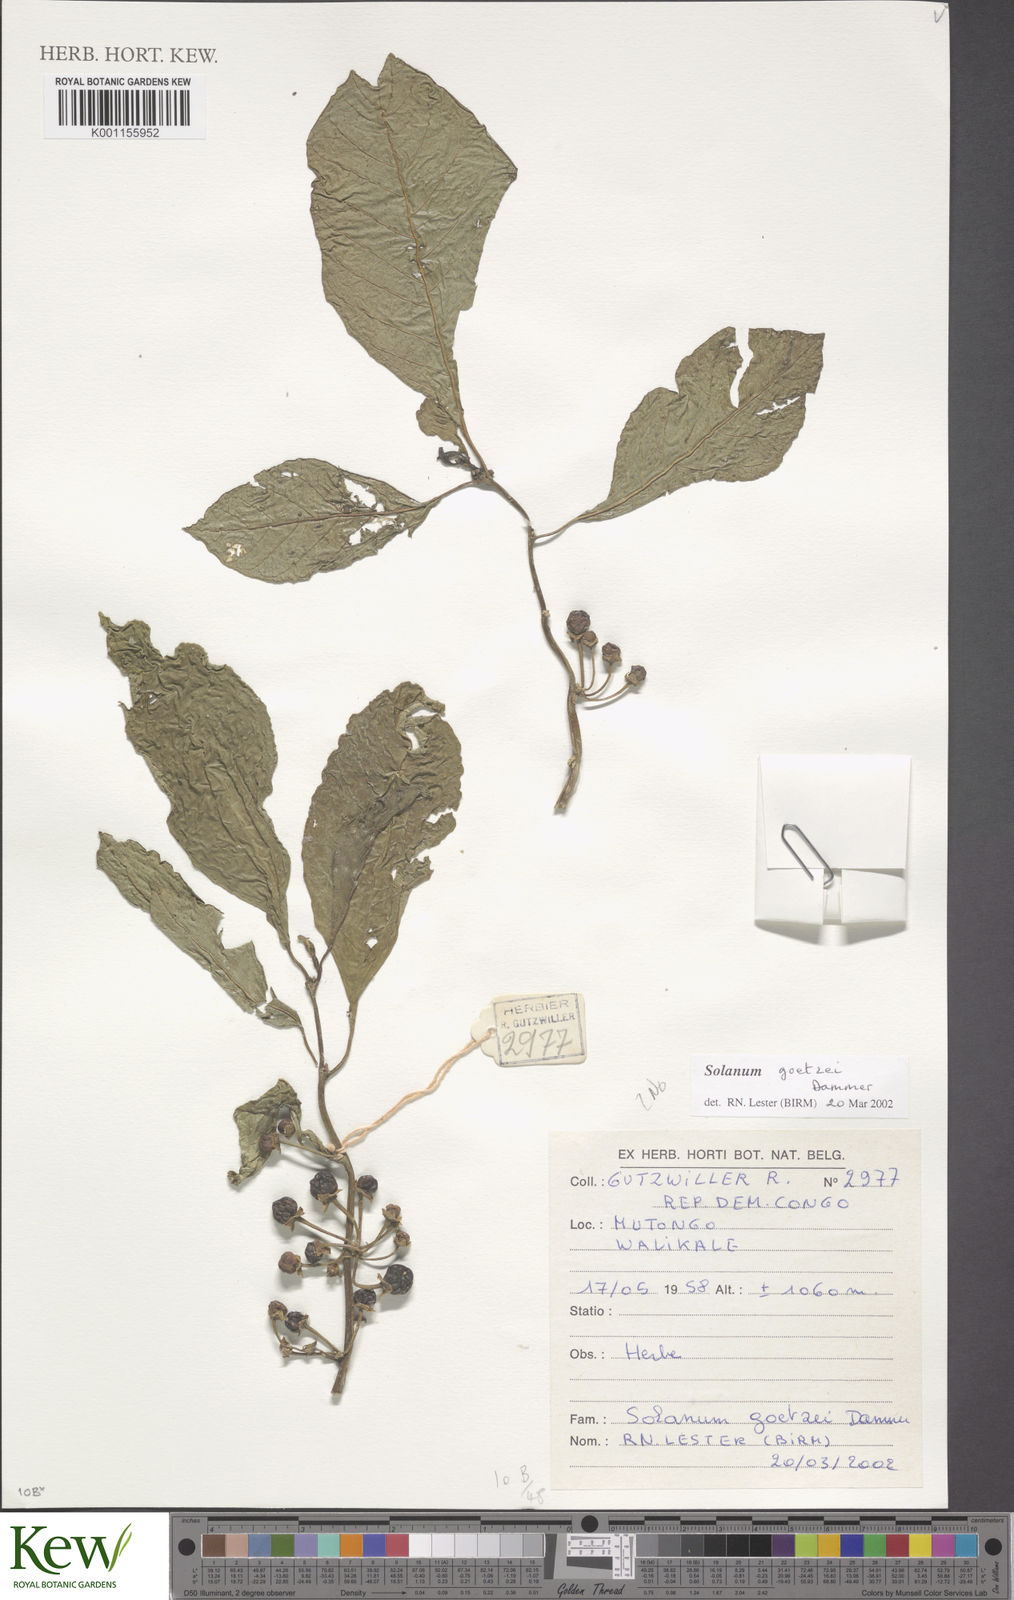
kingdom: Plantae
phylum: Tracheophyta
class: Magnoliopsida
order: Solanales
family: Solanaceae
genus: Solanum
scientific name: Solanum goetzei
